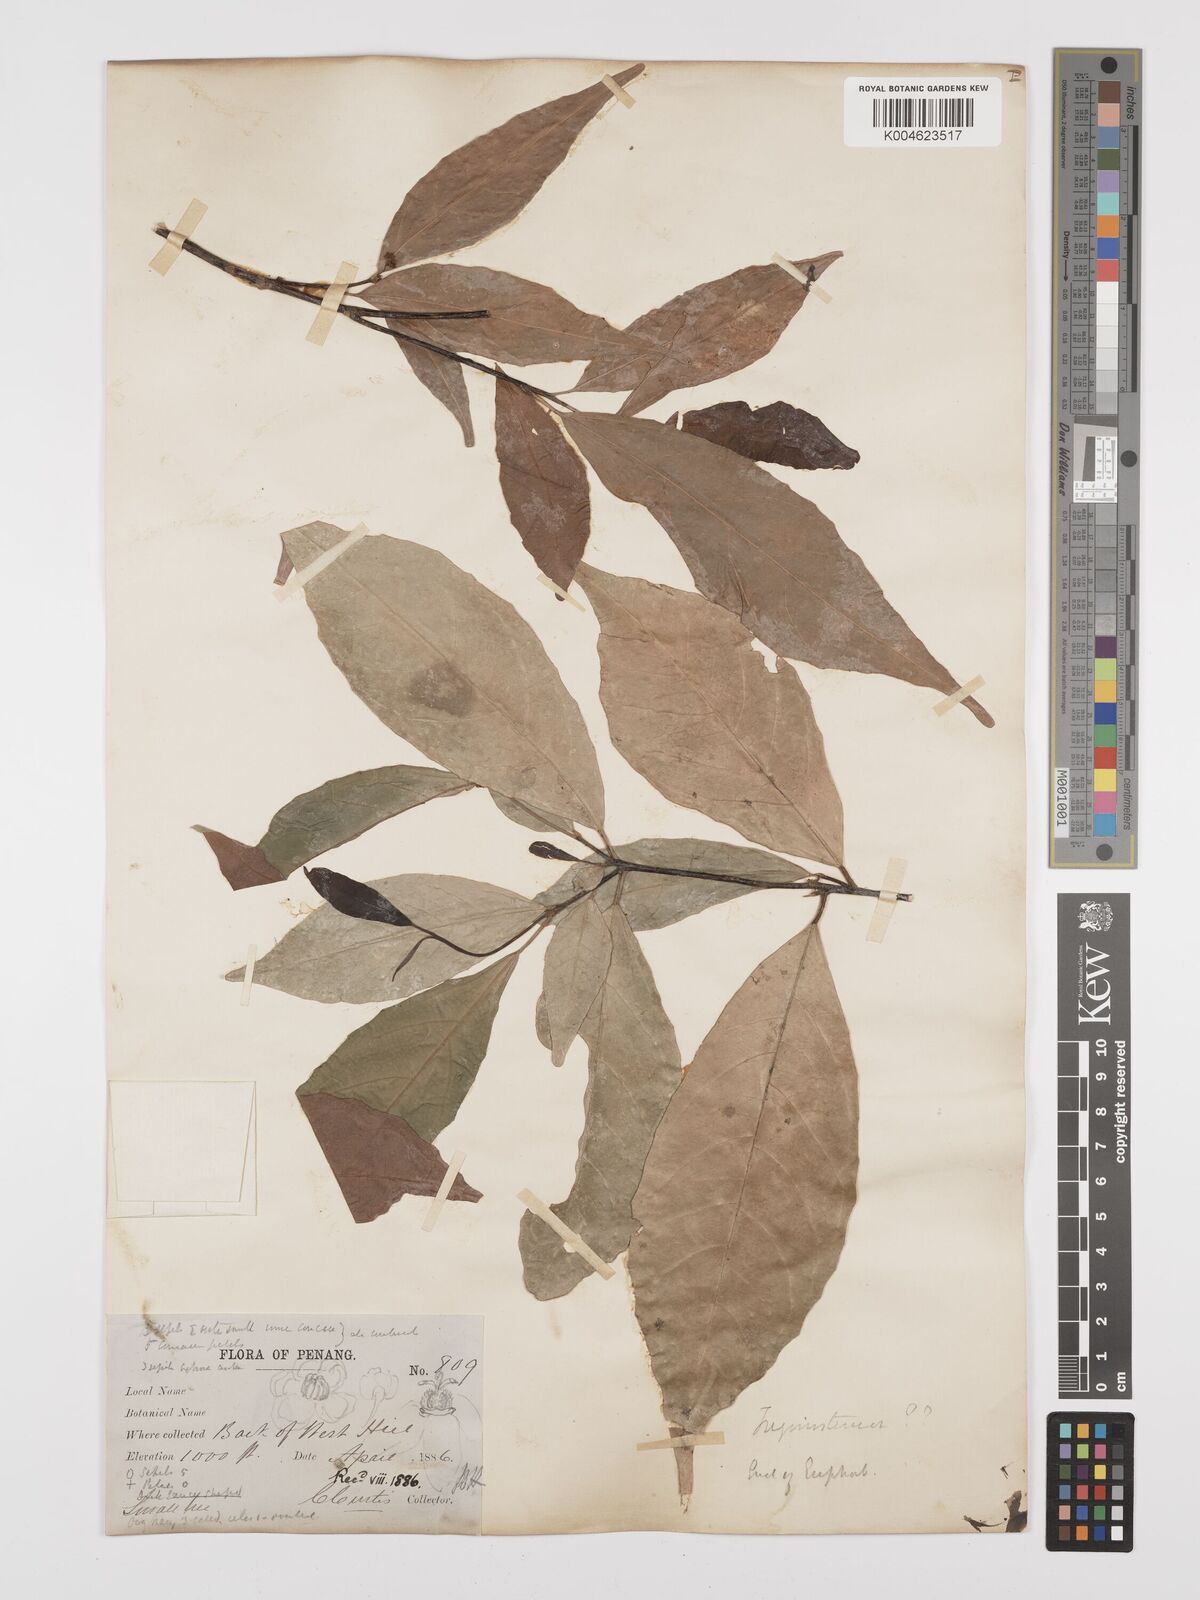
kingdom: Plantae
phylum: Tracheophyta
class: Magnoliopsida
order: Malpighiales
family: Euphorbiaceae
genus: Trigonostemon
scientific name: Trigonostemon laevigatus
